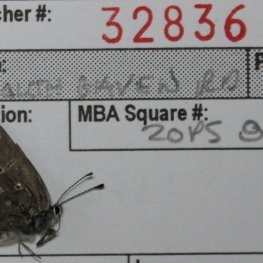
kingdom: Animalia
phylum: Arthropoda
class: Insecta
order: Lepidoptera
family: Lycaenidae
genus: Glaucopsyche
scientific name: Glaucopsyche lygdamus
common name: Silvery Blue
